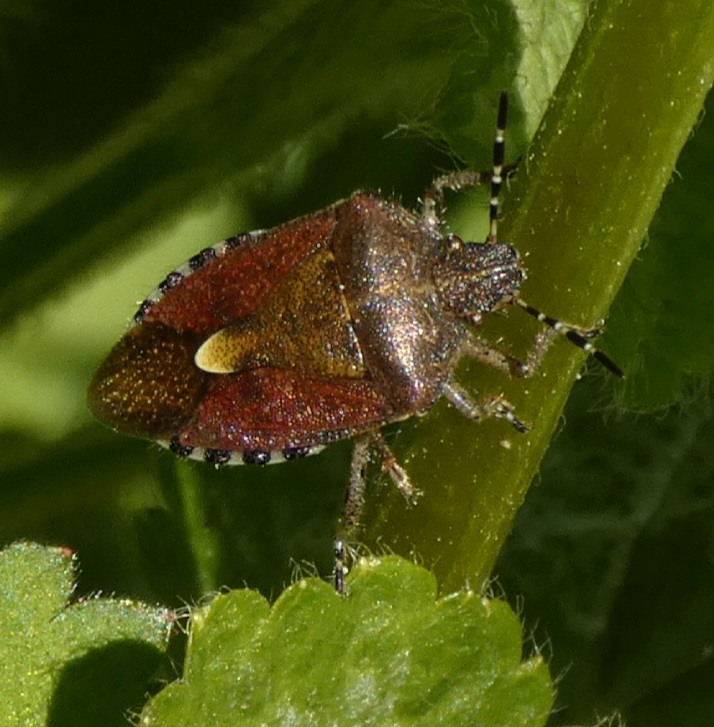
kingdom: Animalia
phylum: Arthropoda
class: Insecta
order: Hemiptera
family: Pentatomidae
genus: Dolycoris
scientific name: Dolycoris baccarum
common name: Almindelig bærtæge
